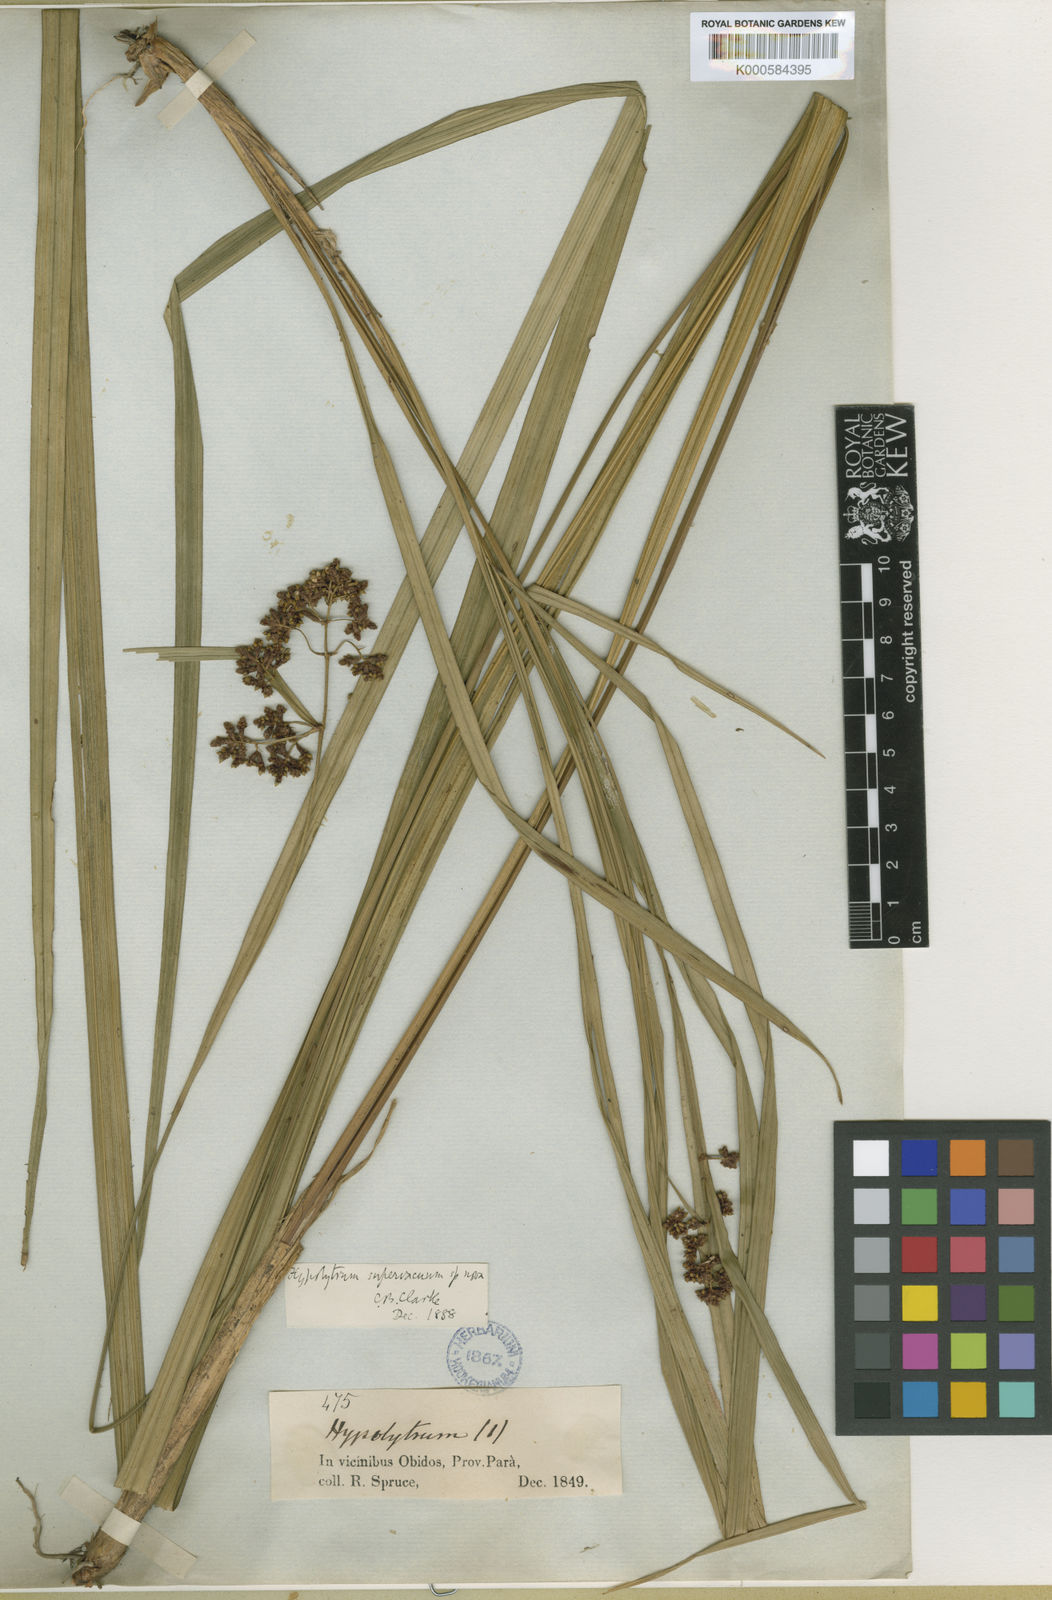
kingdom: Plantae
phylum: Tracheophyta
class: Liliopsida
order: Poales
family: Cyperaceae
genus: Hypolytrum
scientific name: Hypolytrum supervacuum
